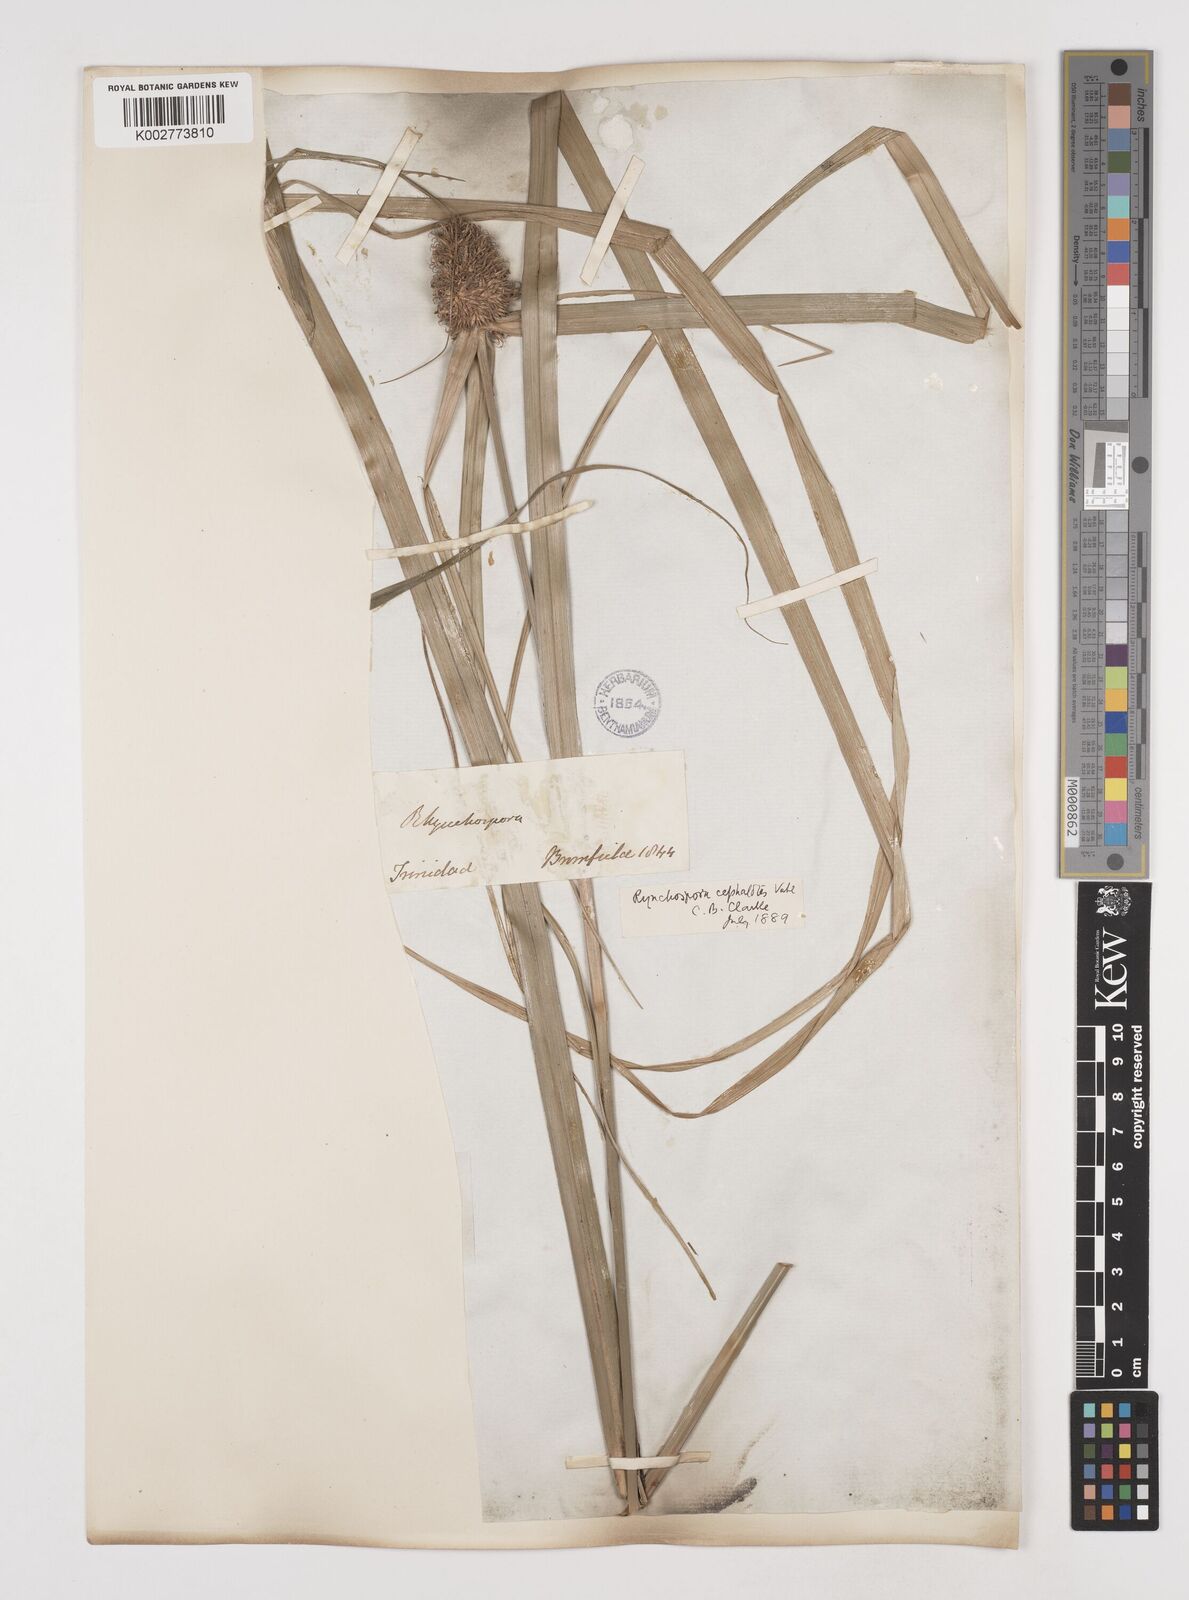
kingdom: Plantae
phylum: Tracheophyta
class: Liliopsida
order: Poales
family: Cyperaceae
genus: Rhynchospora
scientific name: Rhynchospora cephalotes
